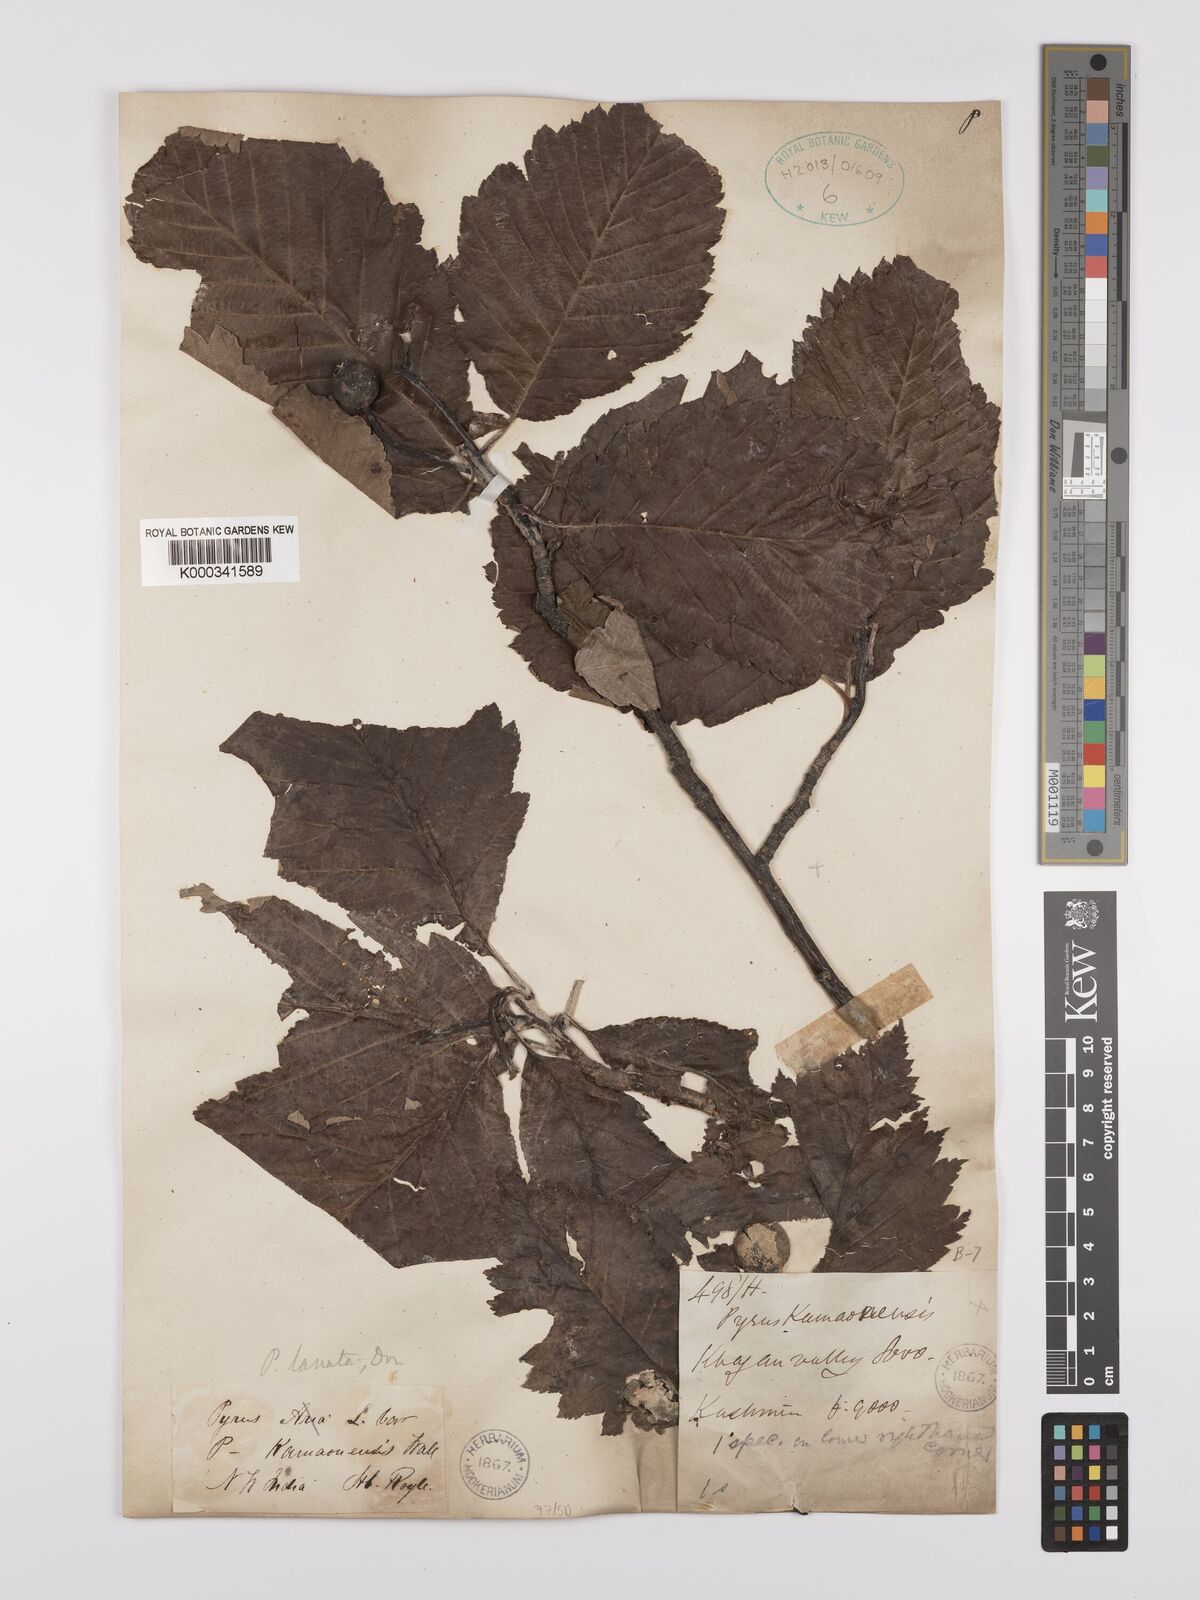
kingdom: Plantae
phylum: Tracheophyta
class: Magnoliopsida
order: Rosales
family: Rosaceae
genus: Sorbus
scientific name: Sorbus lanata
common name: Hairy rowan
